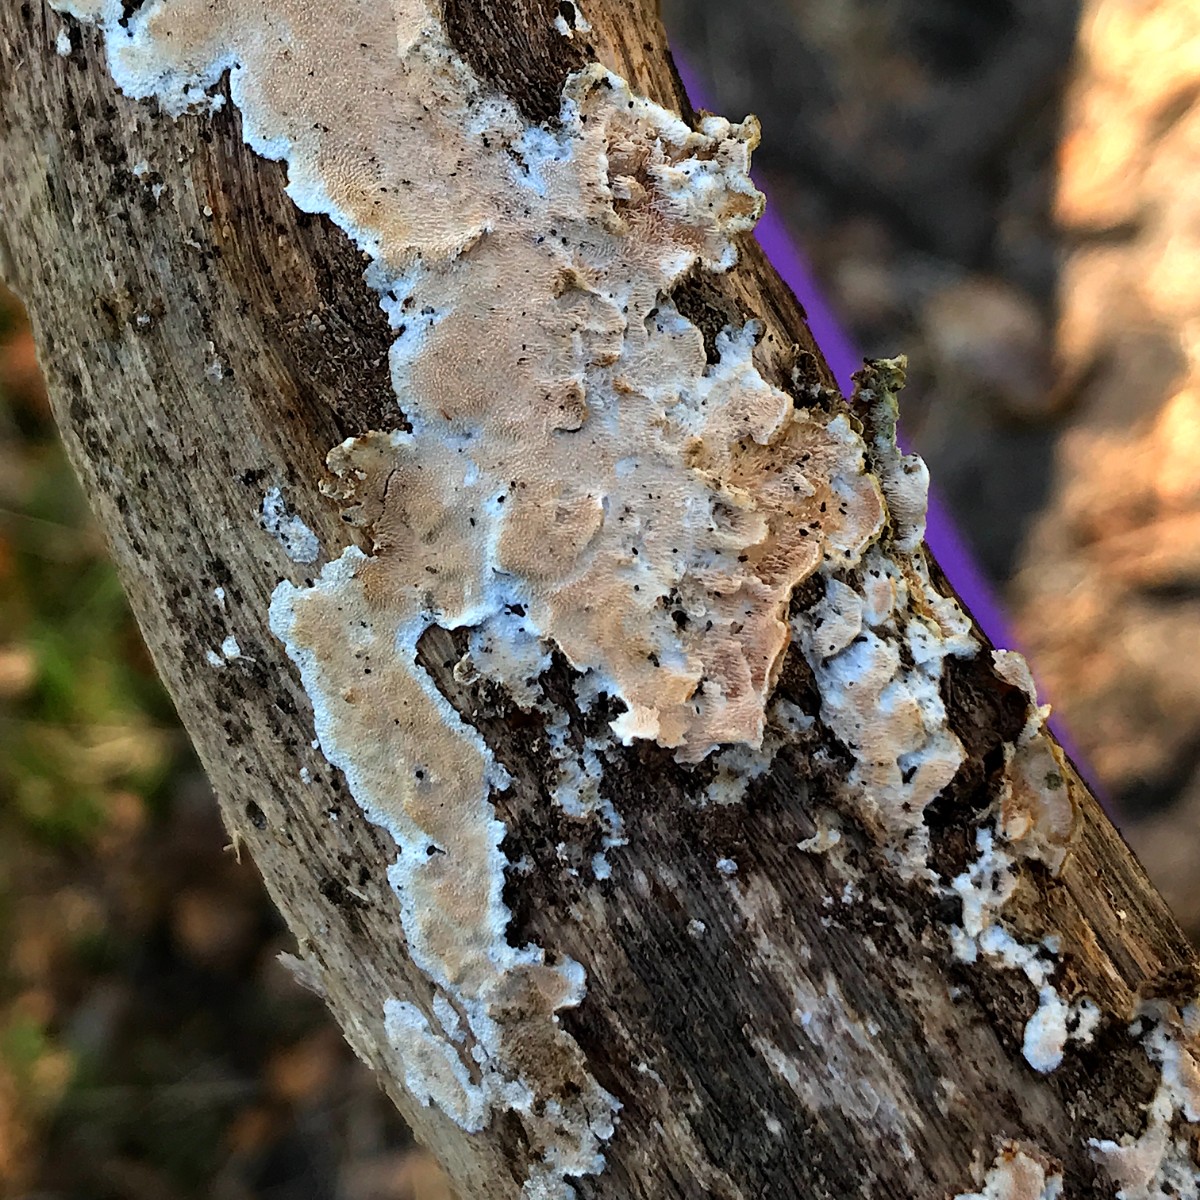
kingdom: Fungi
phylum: Basidiomycota
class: Agaricomycetes
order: Polyporales
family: Steccherinaceae
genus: Steccherinum
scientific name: Steccherinum ochraceum
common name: almindelig skønpig
